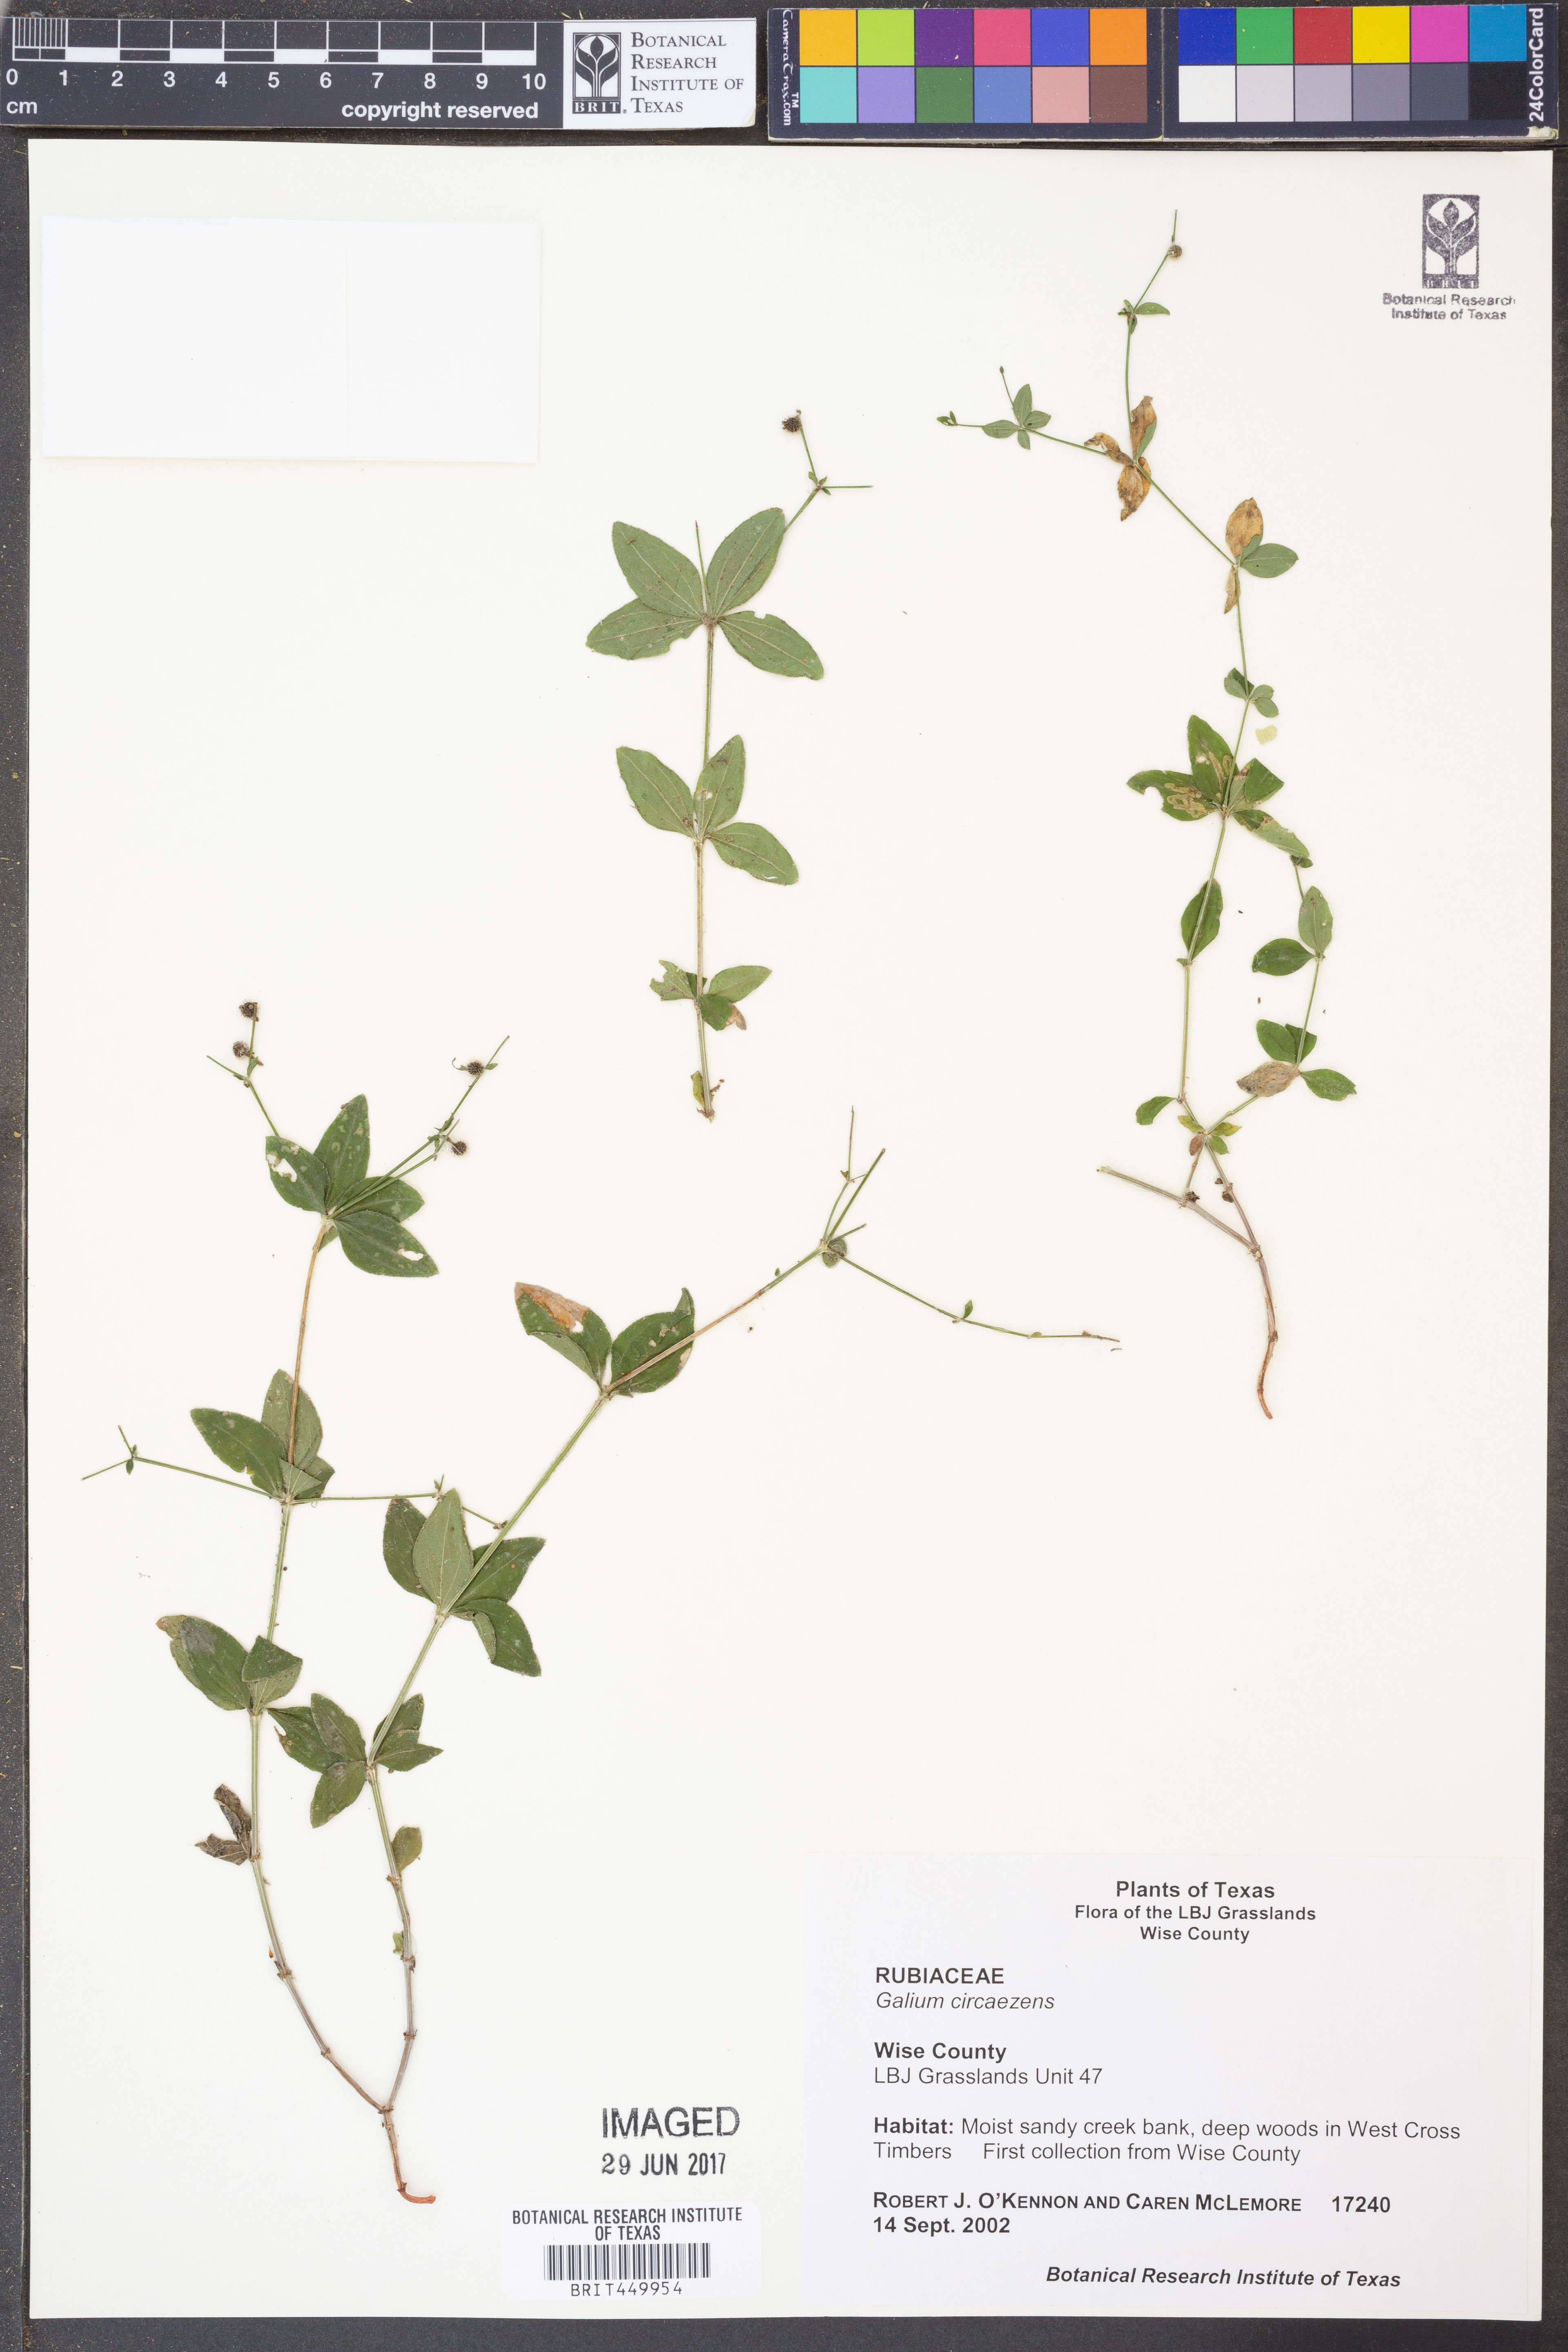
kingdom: Plantae
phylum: Tracheophyta
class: Magnoliopsida
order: Gentianales
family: Rubiaceae
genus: Galium
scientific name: Galium circaezans
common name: Forest bedstraw
